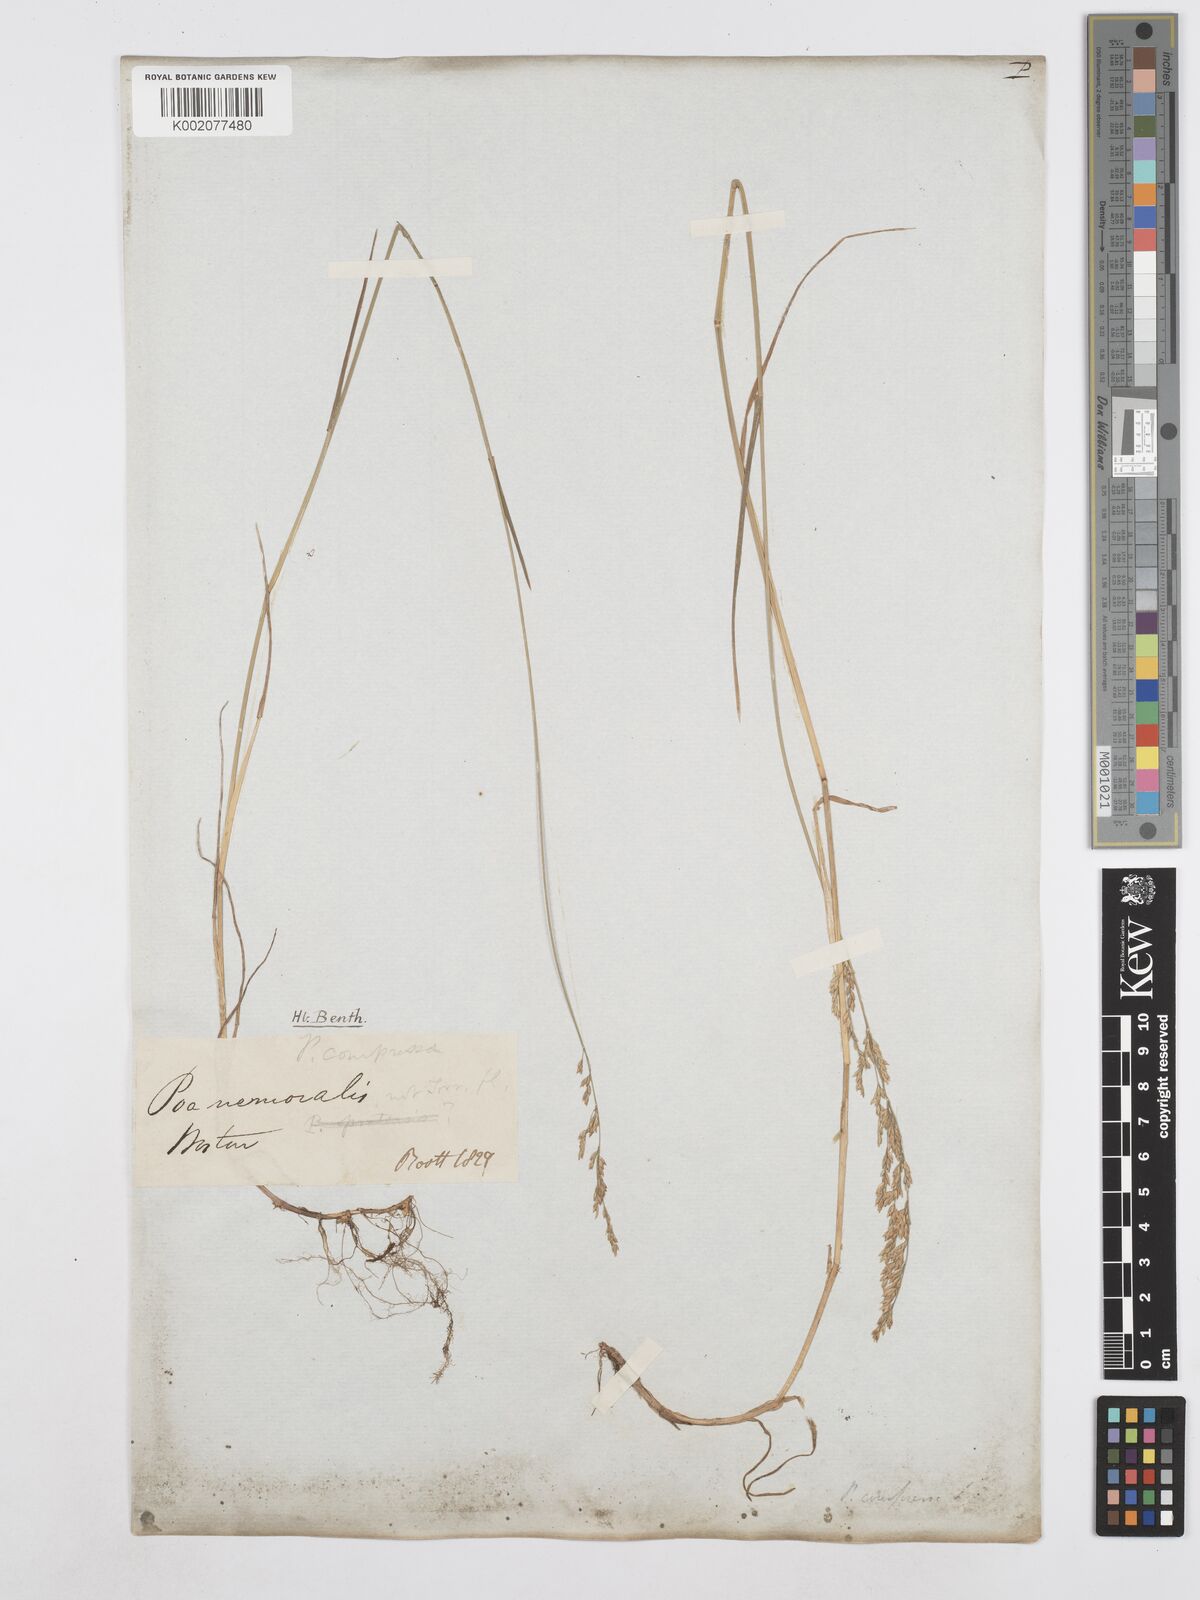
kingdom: Plantae
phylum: Tracheophyta
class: Liliopsida
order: Poales
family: Poaceae
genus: Poa
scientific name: Poa compressa
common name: Canada bluegrass
